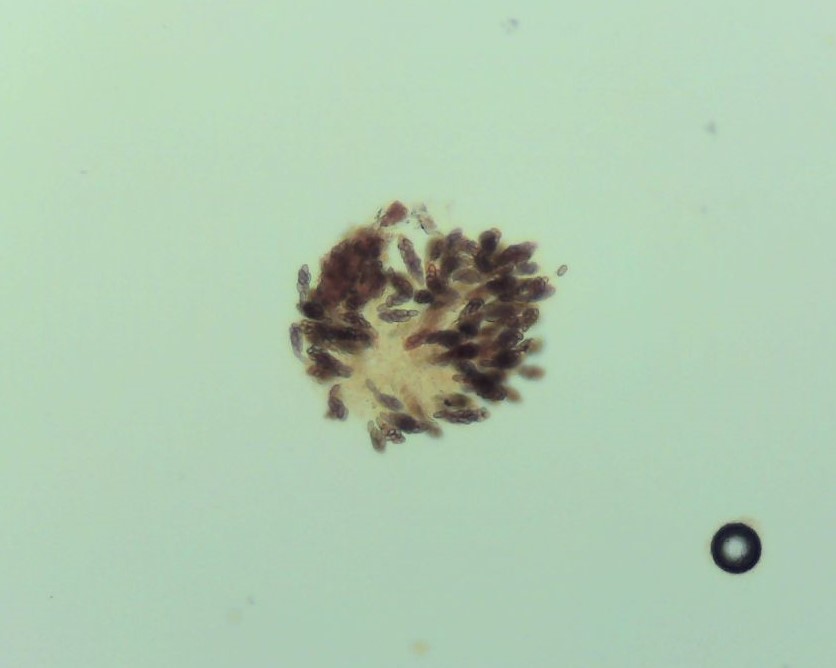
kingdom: Fungi
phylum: Ascomycota
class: Sordariomycetes
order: Coronophorales
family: Scortechiniaceae
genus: Tympanopsis
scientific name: Tympanopsis confertula
